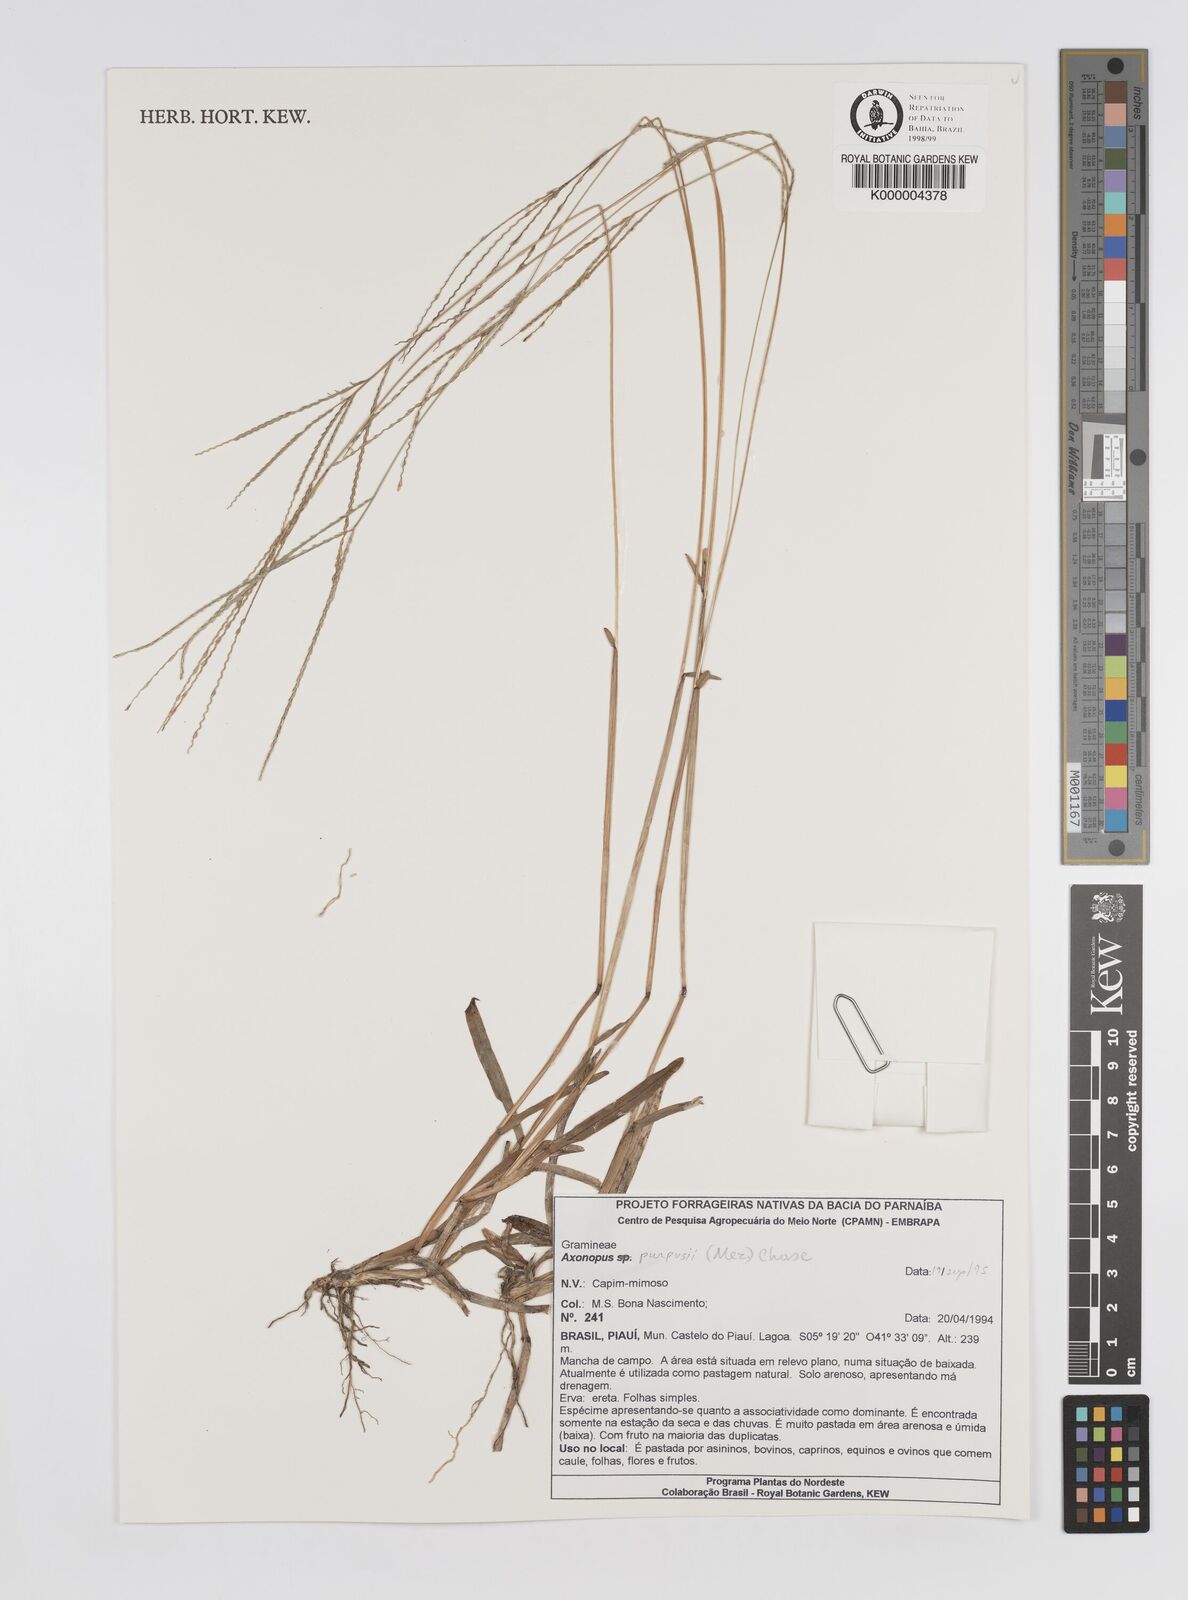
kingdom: Plantae
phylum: Tracheophyta
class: Liliopsida
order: Poales
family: Poaceae
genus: Axonopus
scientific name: Axonopus purpusii
